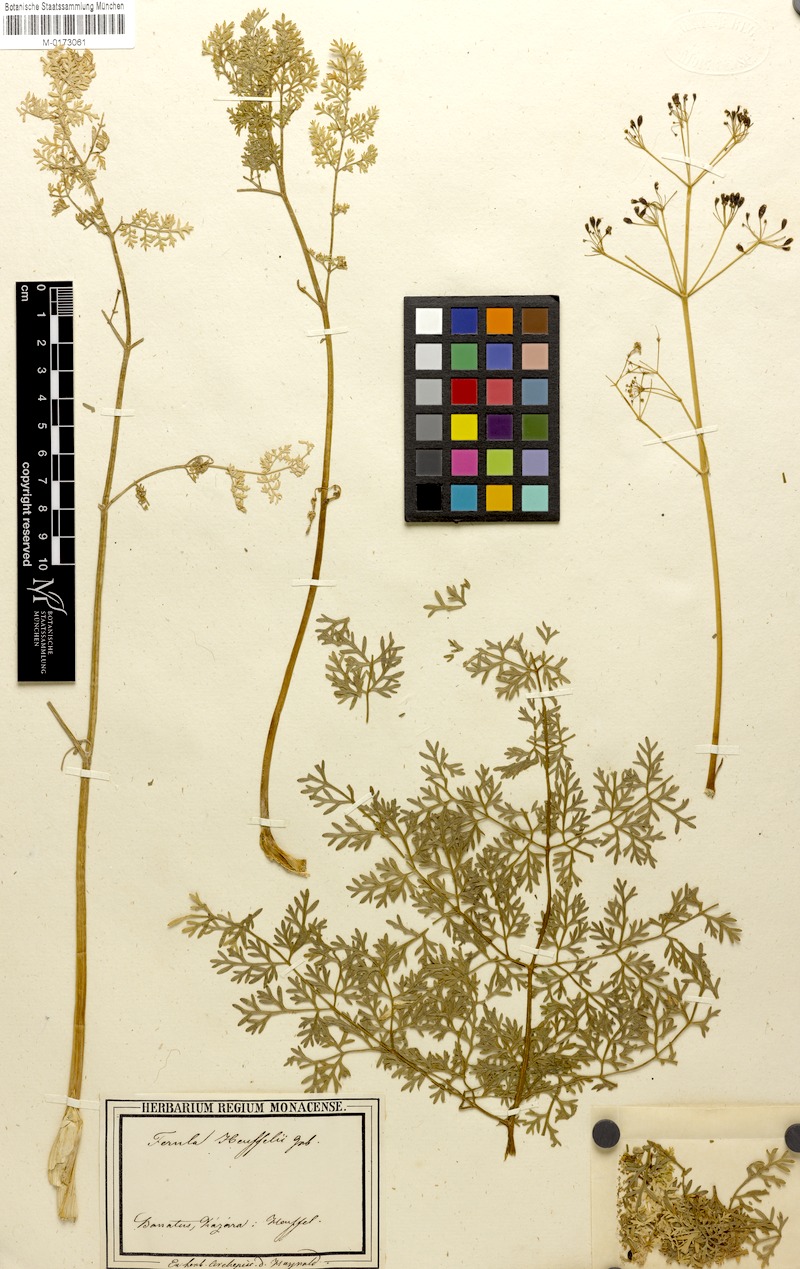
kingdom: Plantae
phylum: Tracheophyta
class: Magnoliopsida
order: Apiales
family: Apiaceae
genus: Ferula
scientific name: Ferula heuffelii
